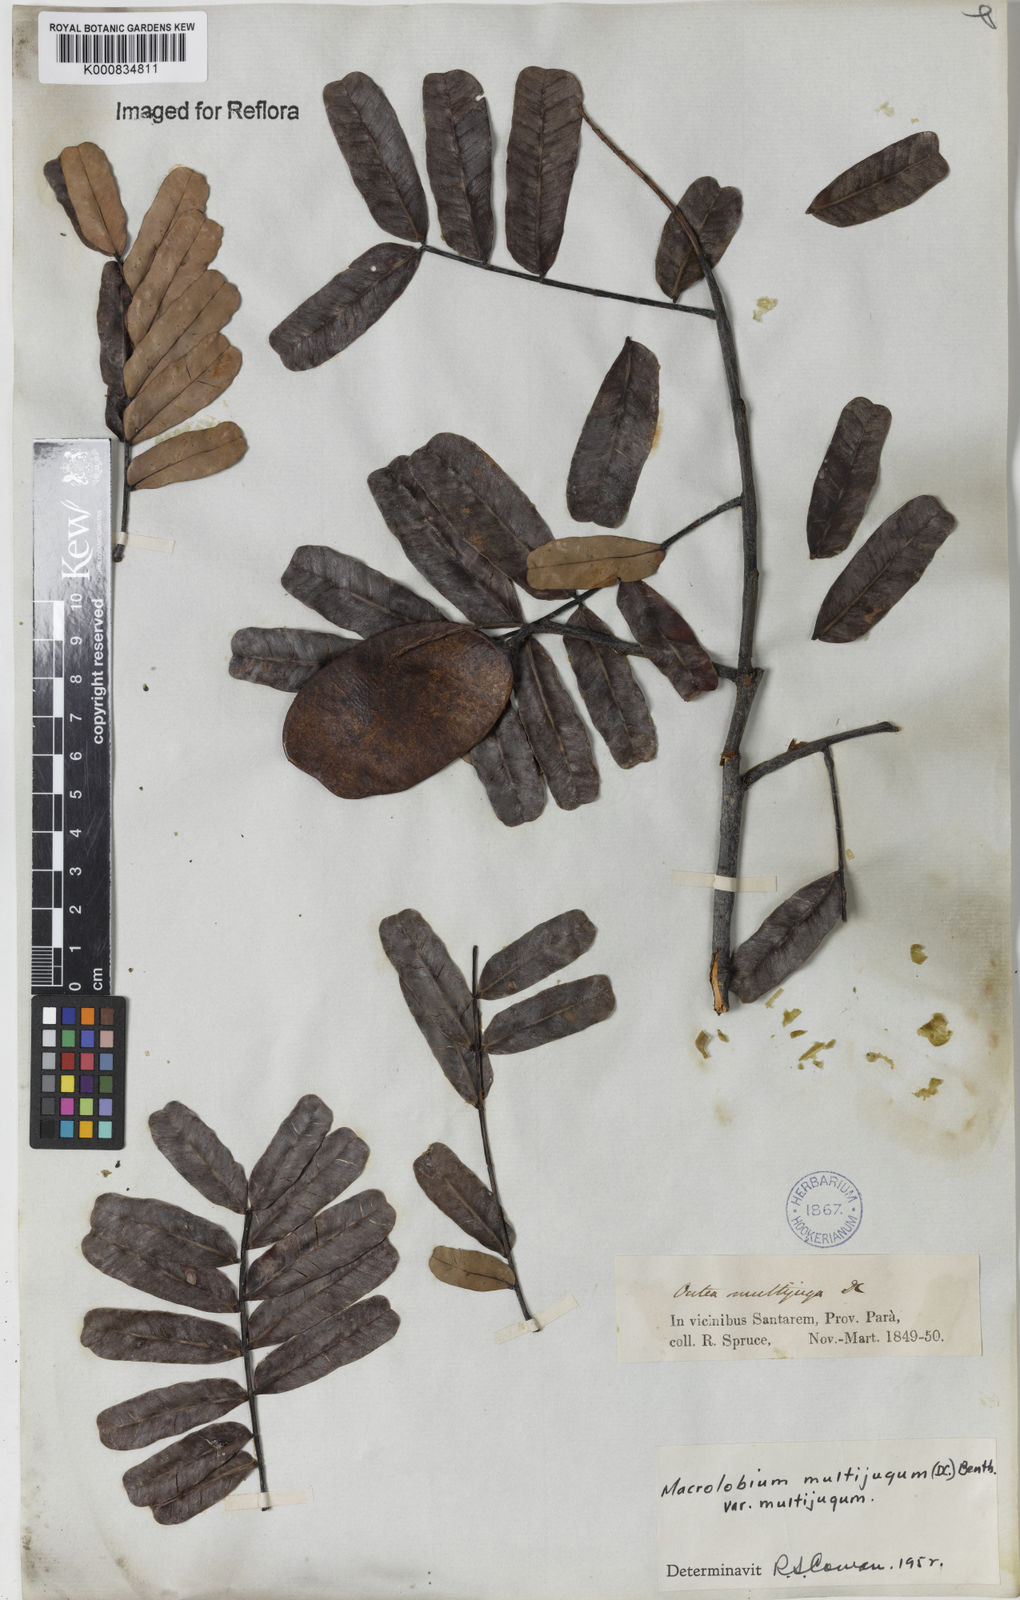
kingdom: Plantae
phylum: Tracheophyta
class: Magnoliopsida
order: Fabales
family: Fabaceae
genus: Macrolobium
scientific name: Macrolobium multijugum
